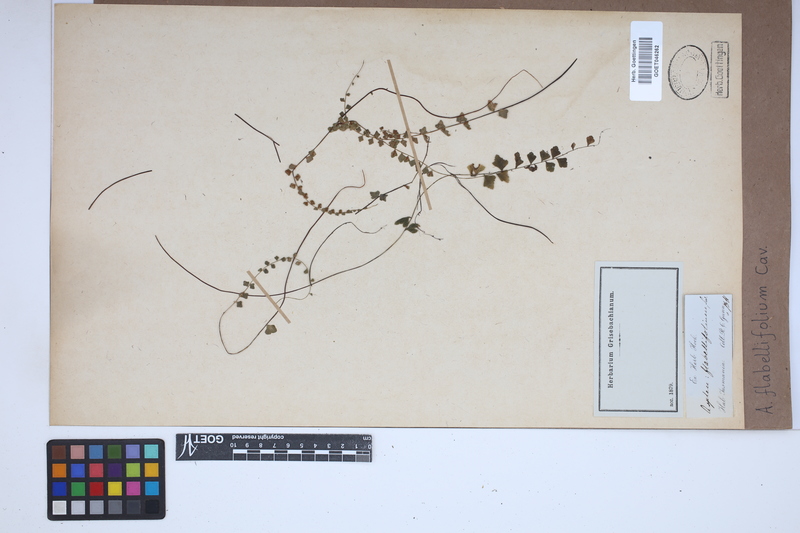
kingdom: Plantae
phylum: Tracheophyta
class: Polypodiopsida
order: Polypodiales
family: Aspleniaceae
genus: Asplenium
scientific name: Asplenium flabellifolium
